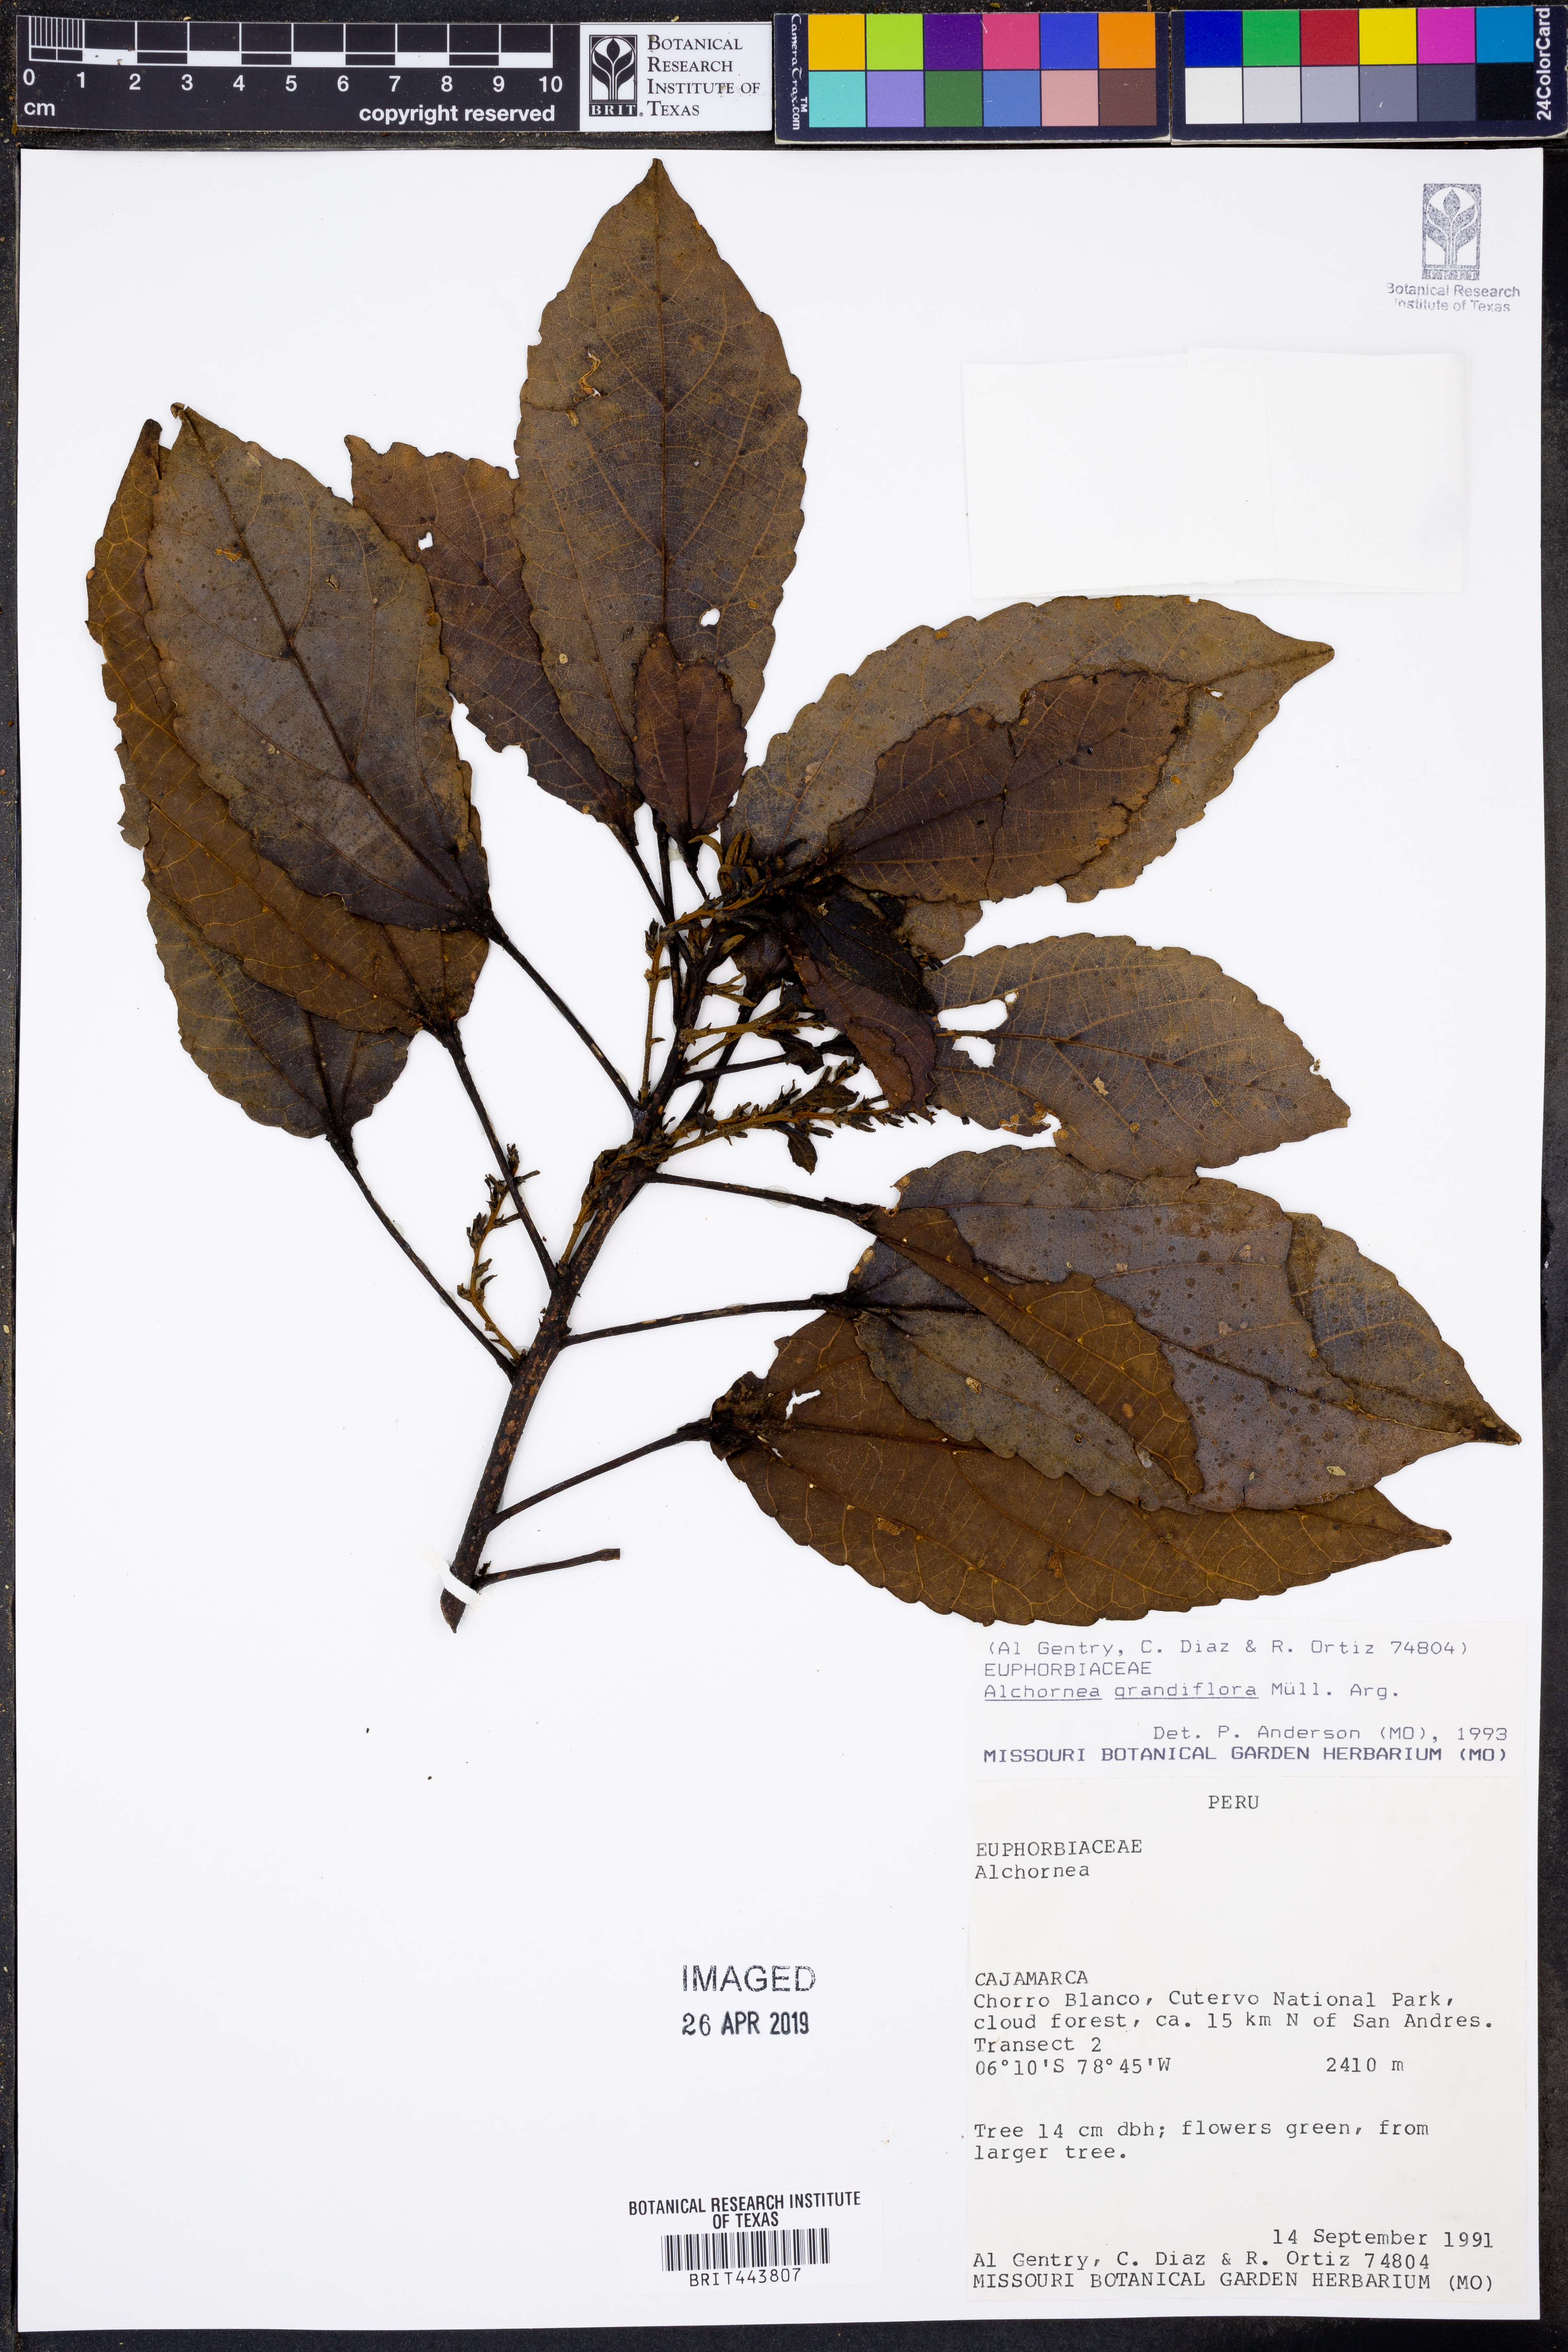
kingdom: Plantae
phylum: Tracheophyta
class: Magnoliopsida
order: Malpighiales
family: Euphorbiaceae
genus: Alchornea
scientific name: Alchornea grandiflora
